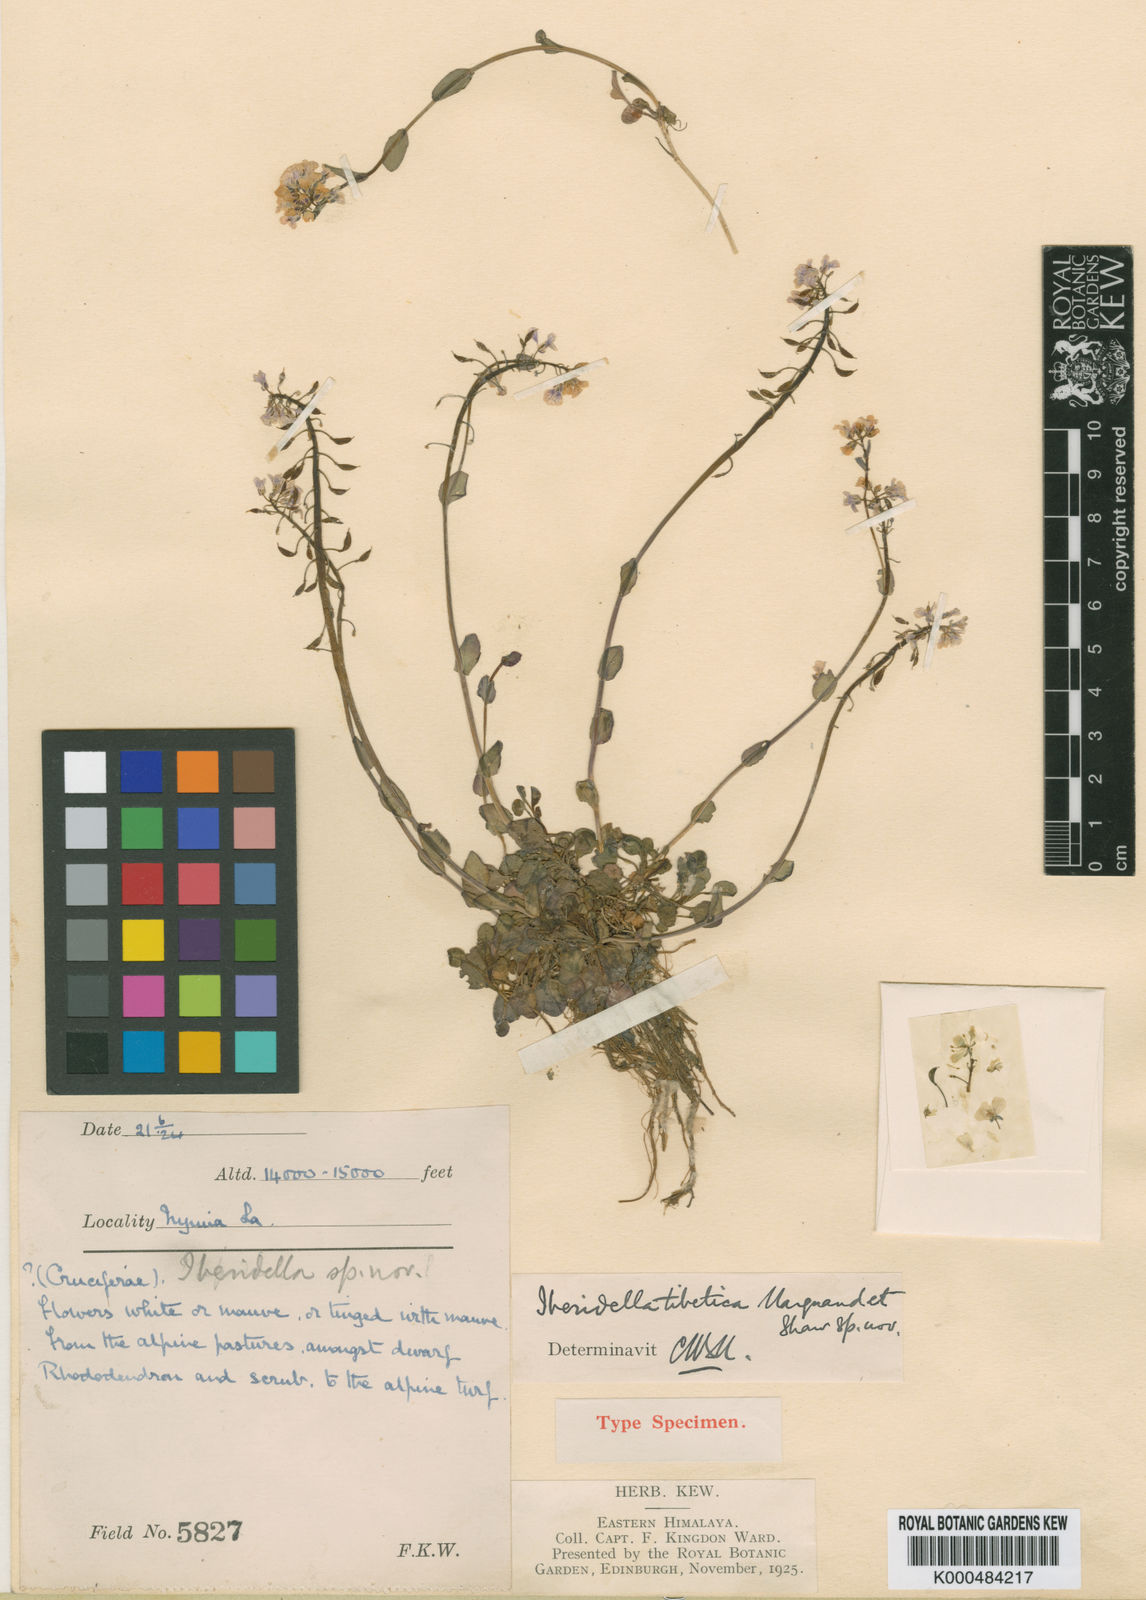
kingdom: Plantae
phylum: Tracheophyta
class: Magnoliopsida
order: Brassicales
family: Brassicaceae
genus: Aethionema
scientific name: Aethionema
